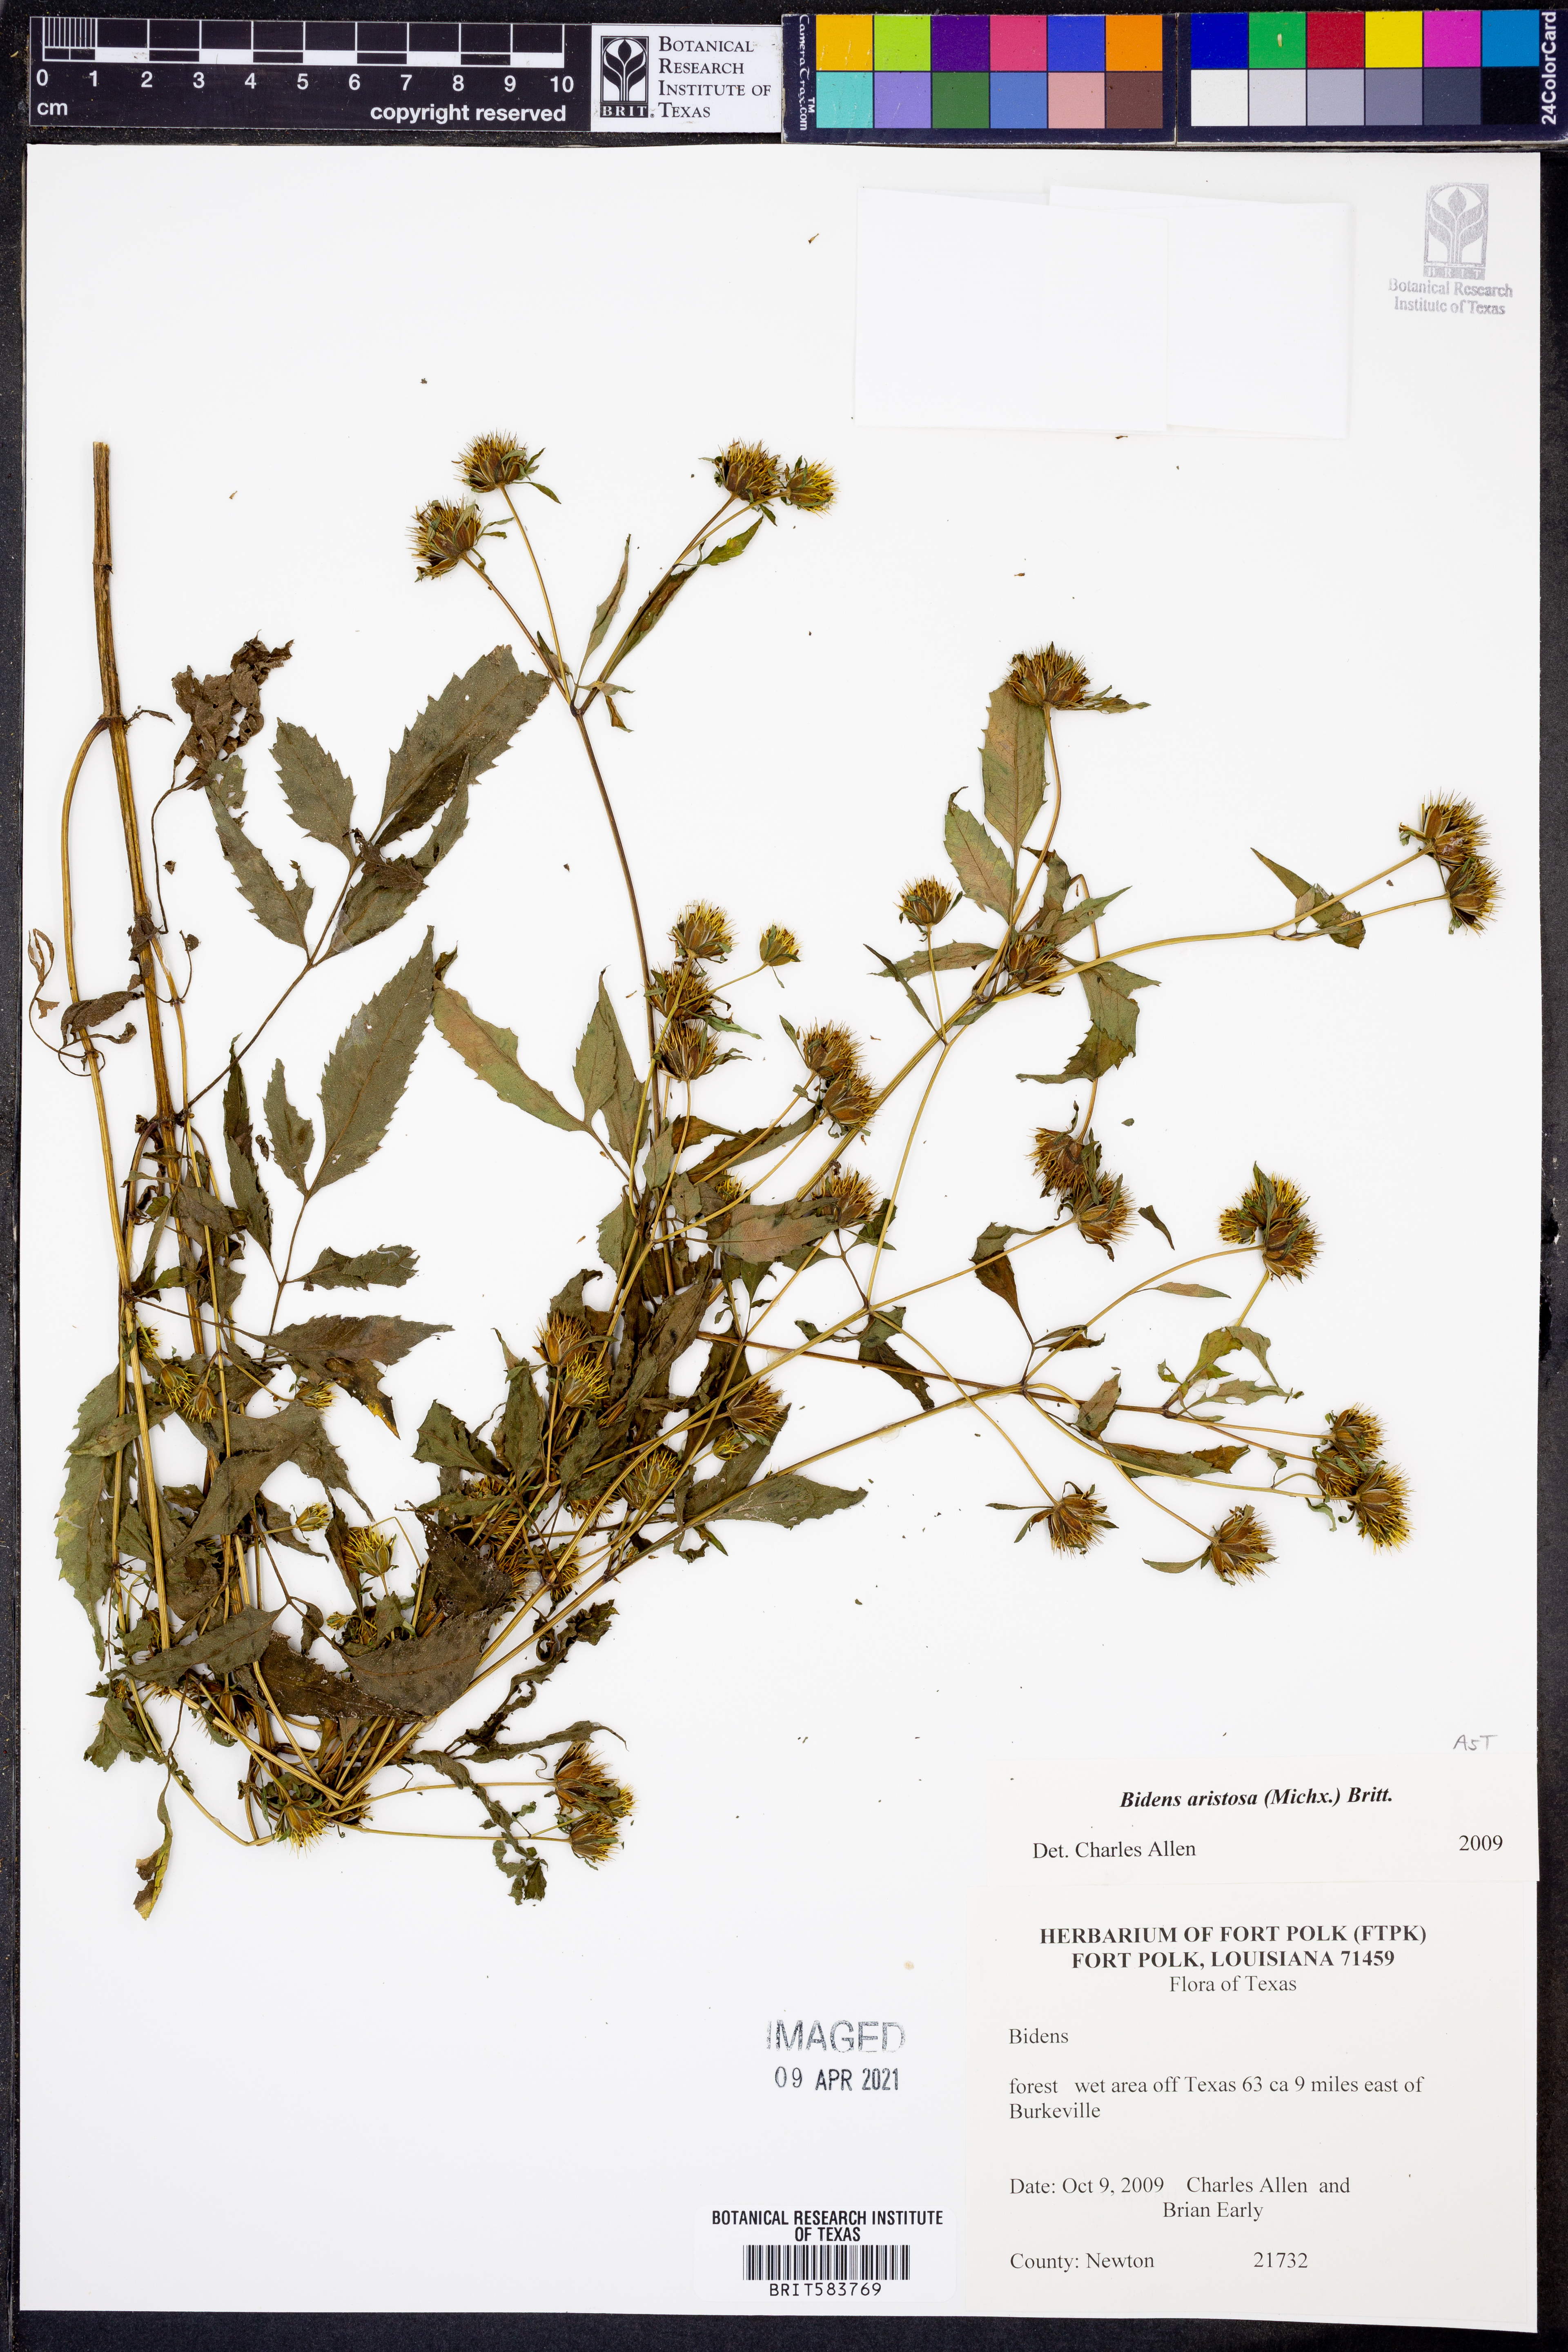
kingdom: Plantae
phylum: Tracheophyta
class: Magnoliopsida
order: Asterales
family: Asteraceae
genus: Bidens
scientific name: Bidens aristosa
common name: Western tickseed
